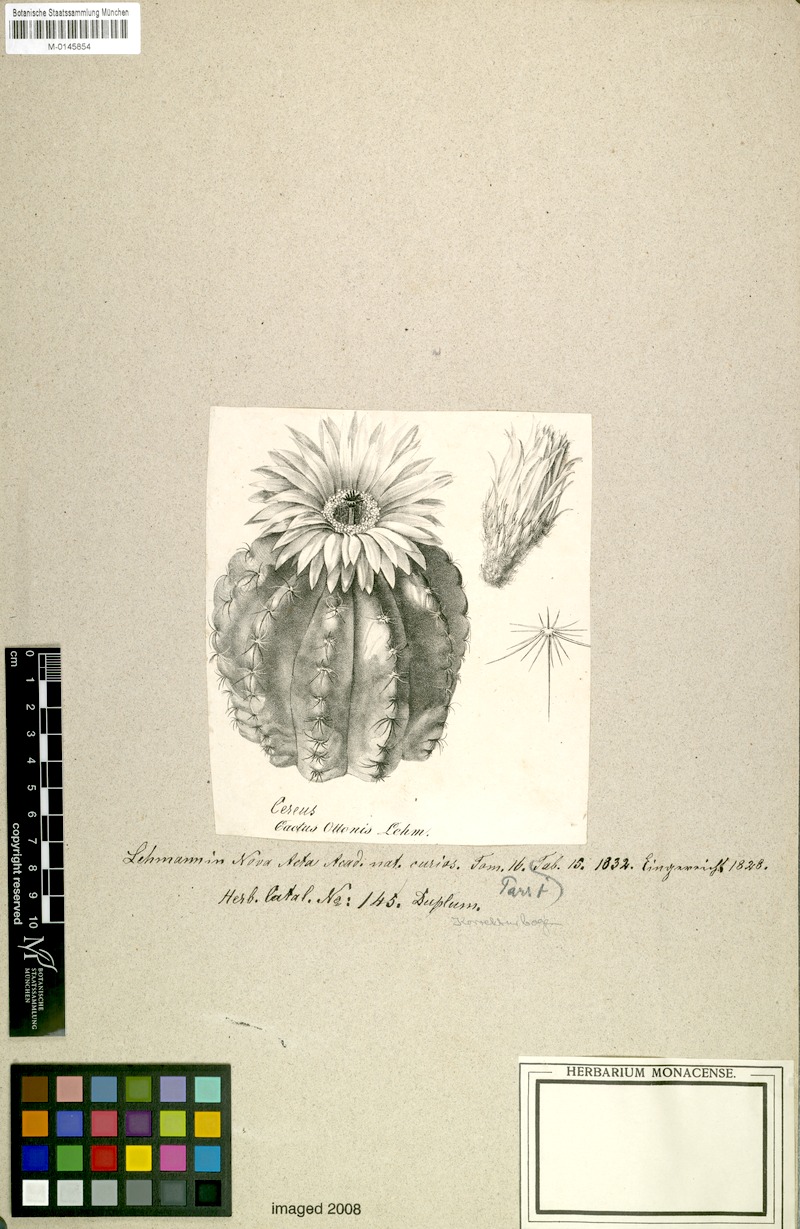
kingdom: Plantae
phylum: Tracheophyta
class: Magnoliopsida
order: Caryophyllales
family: Cactaceae
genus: Parodia
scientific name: Parodia ottonis
